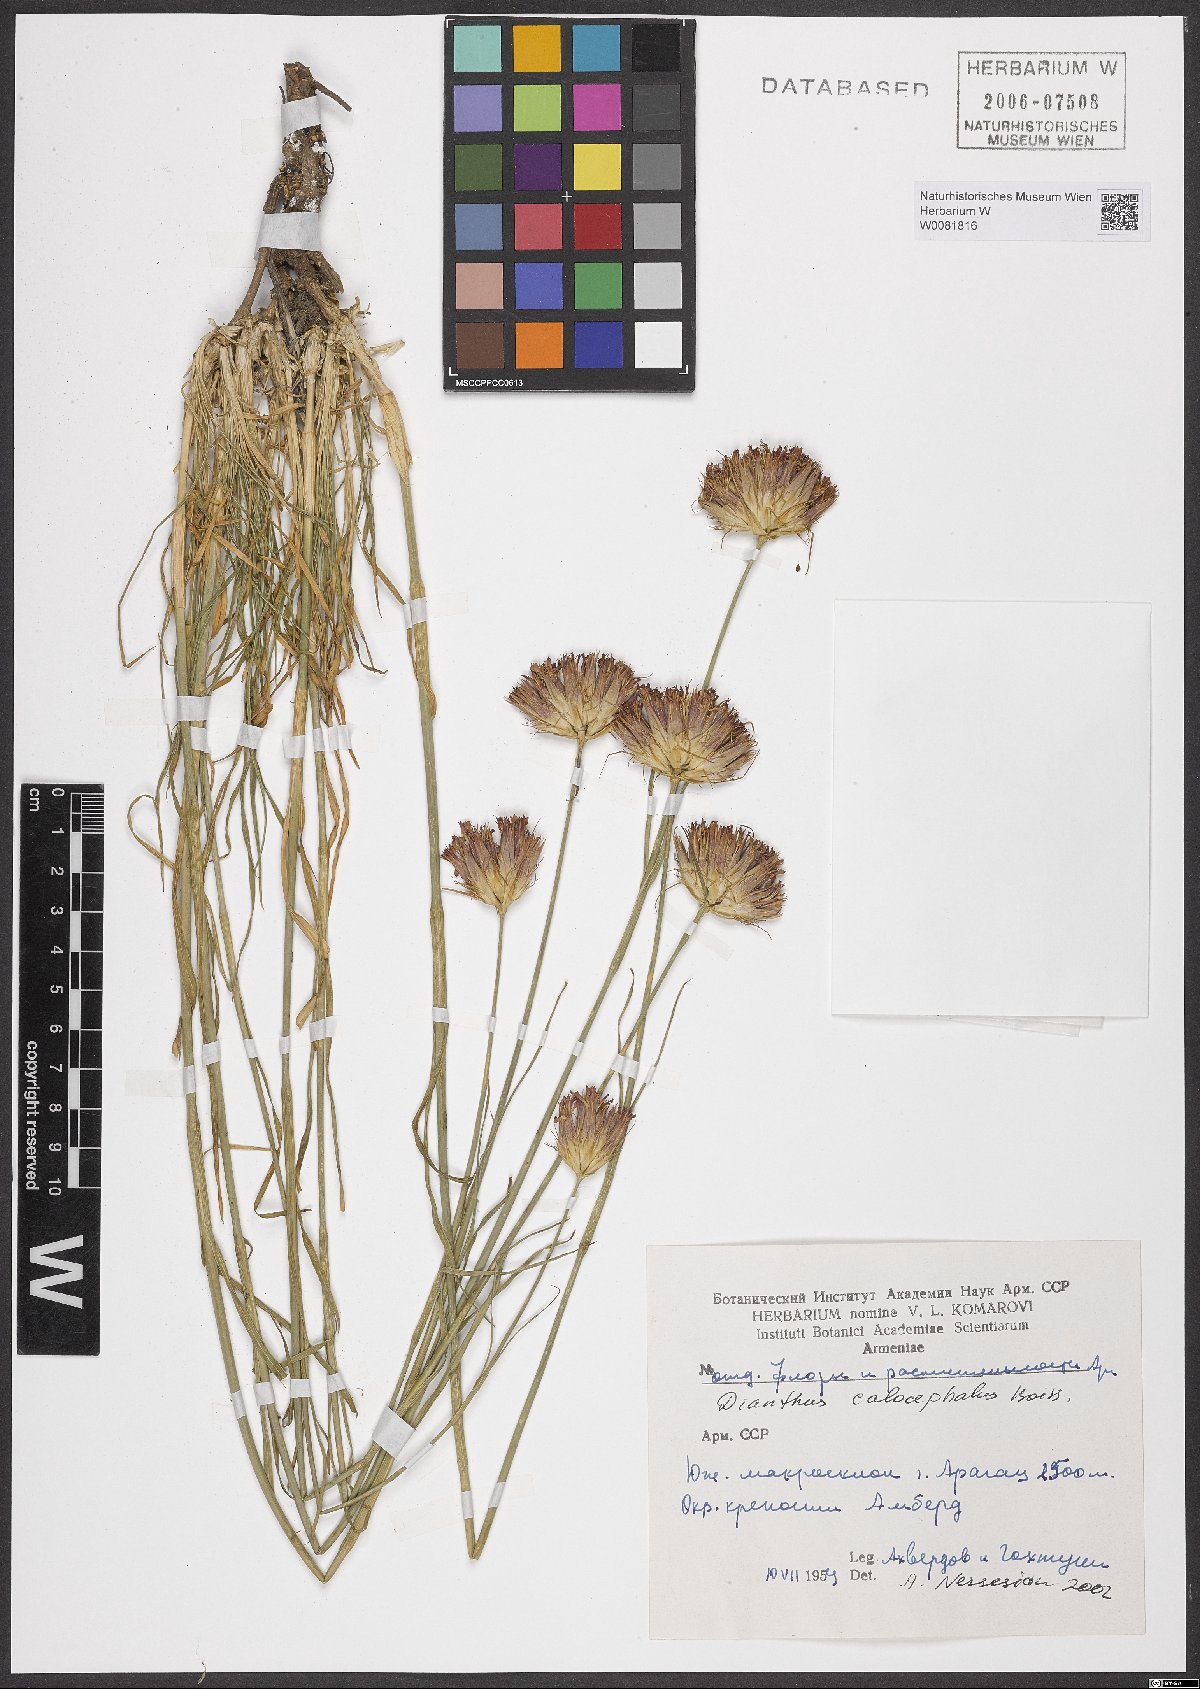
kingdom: Plantae
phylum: Tracheophyta
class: Magnoliopsida
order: Caryophyllales
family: Caryophyllaceae
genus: Dianthus
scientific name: Dianthus cruentus
